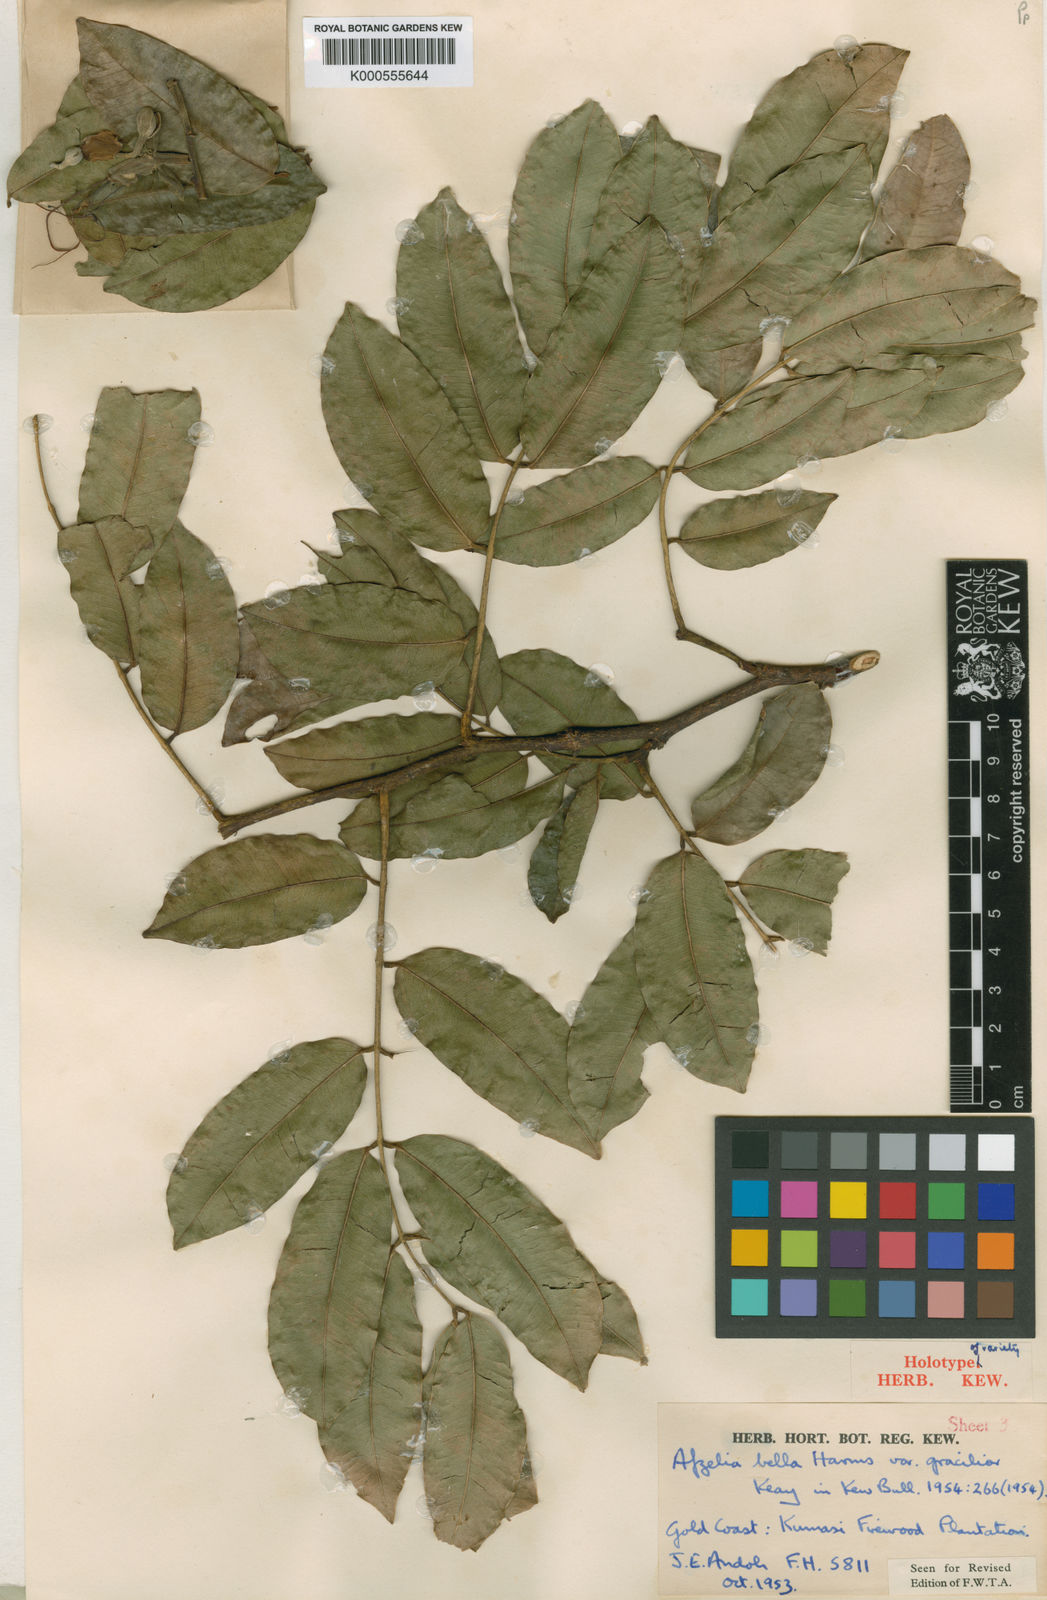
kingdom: Plantae
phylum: Tracheophyta
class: Magnoliopsida
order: Fabales
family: Fabaceae
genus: Afzelia
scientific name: Afzelia bella
